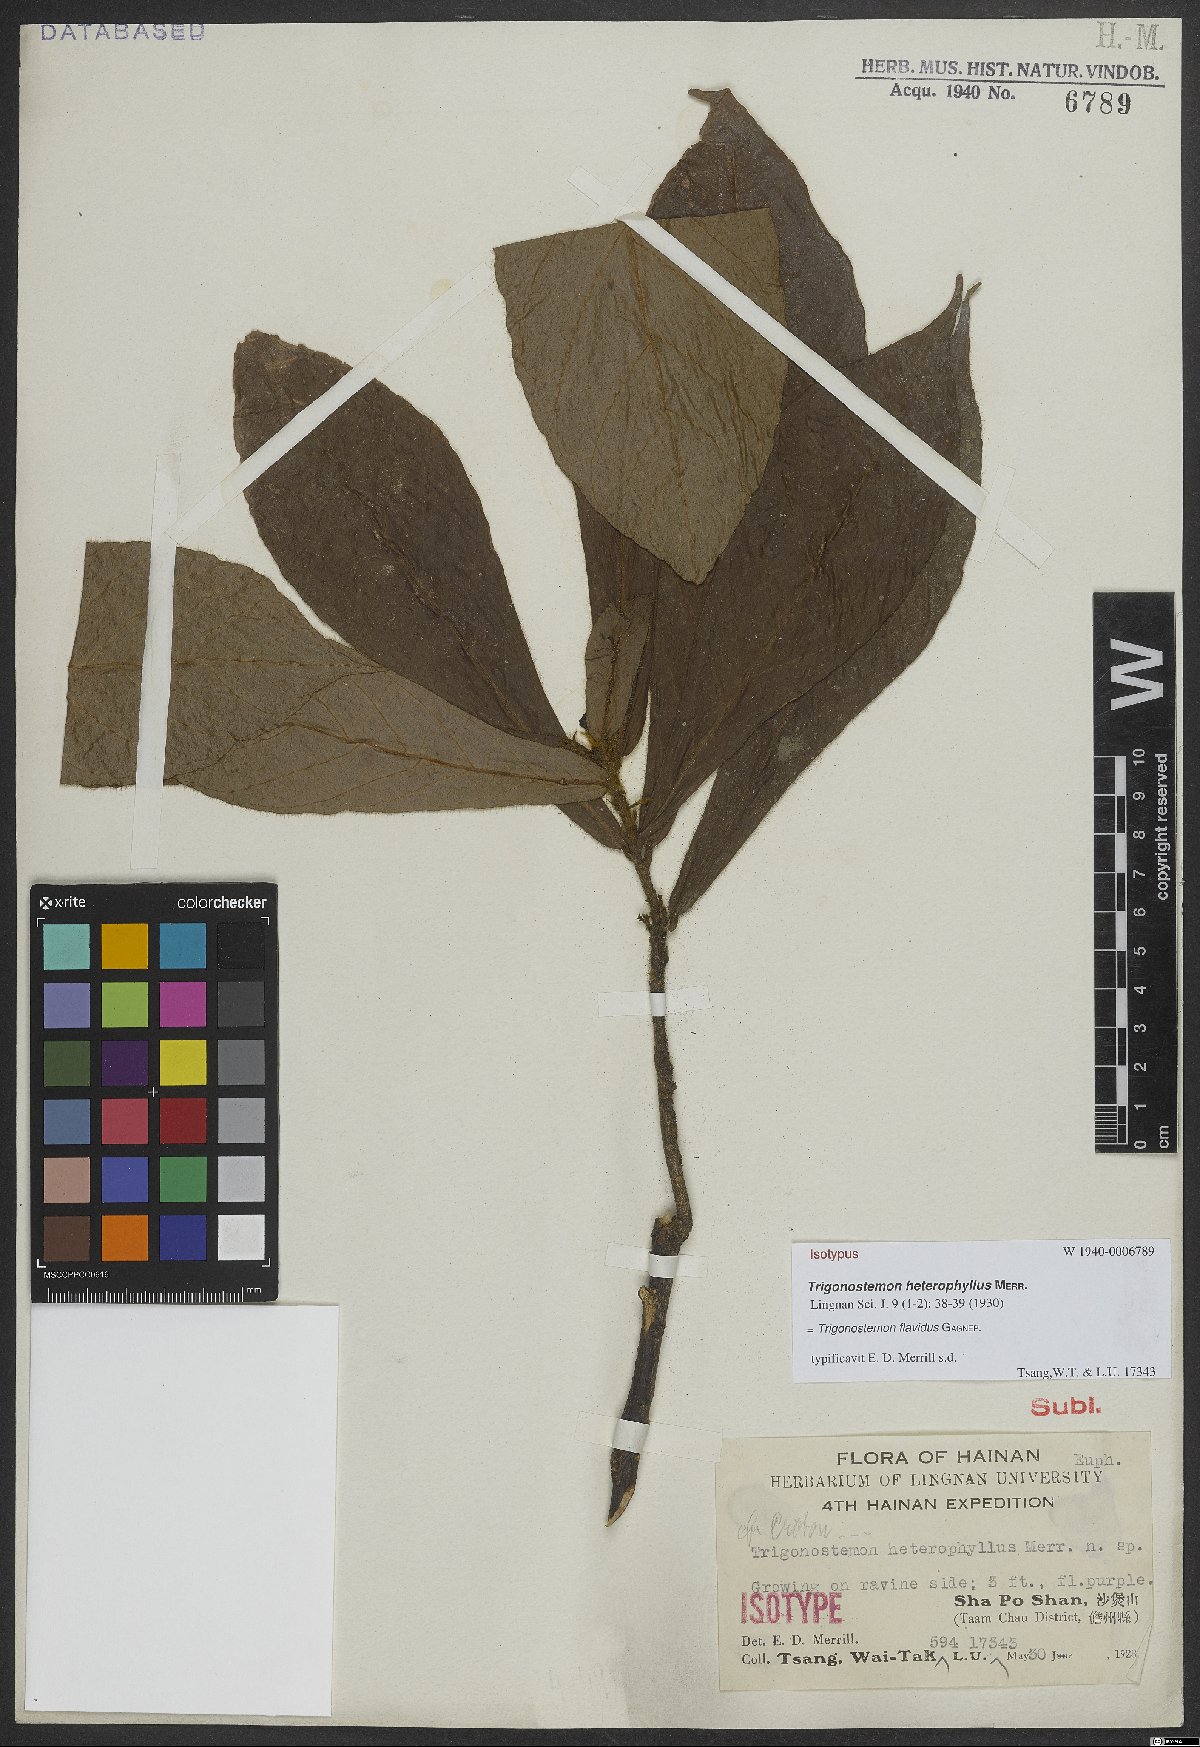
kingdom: Plantae
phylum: Tracheophyta
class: Magnoliopsida
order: Malpighiales
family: Euphorbiaceae
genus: Trigonostemon
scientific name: Trigonostemon flavidus
